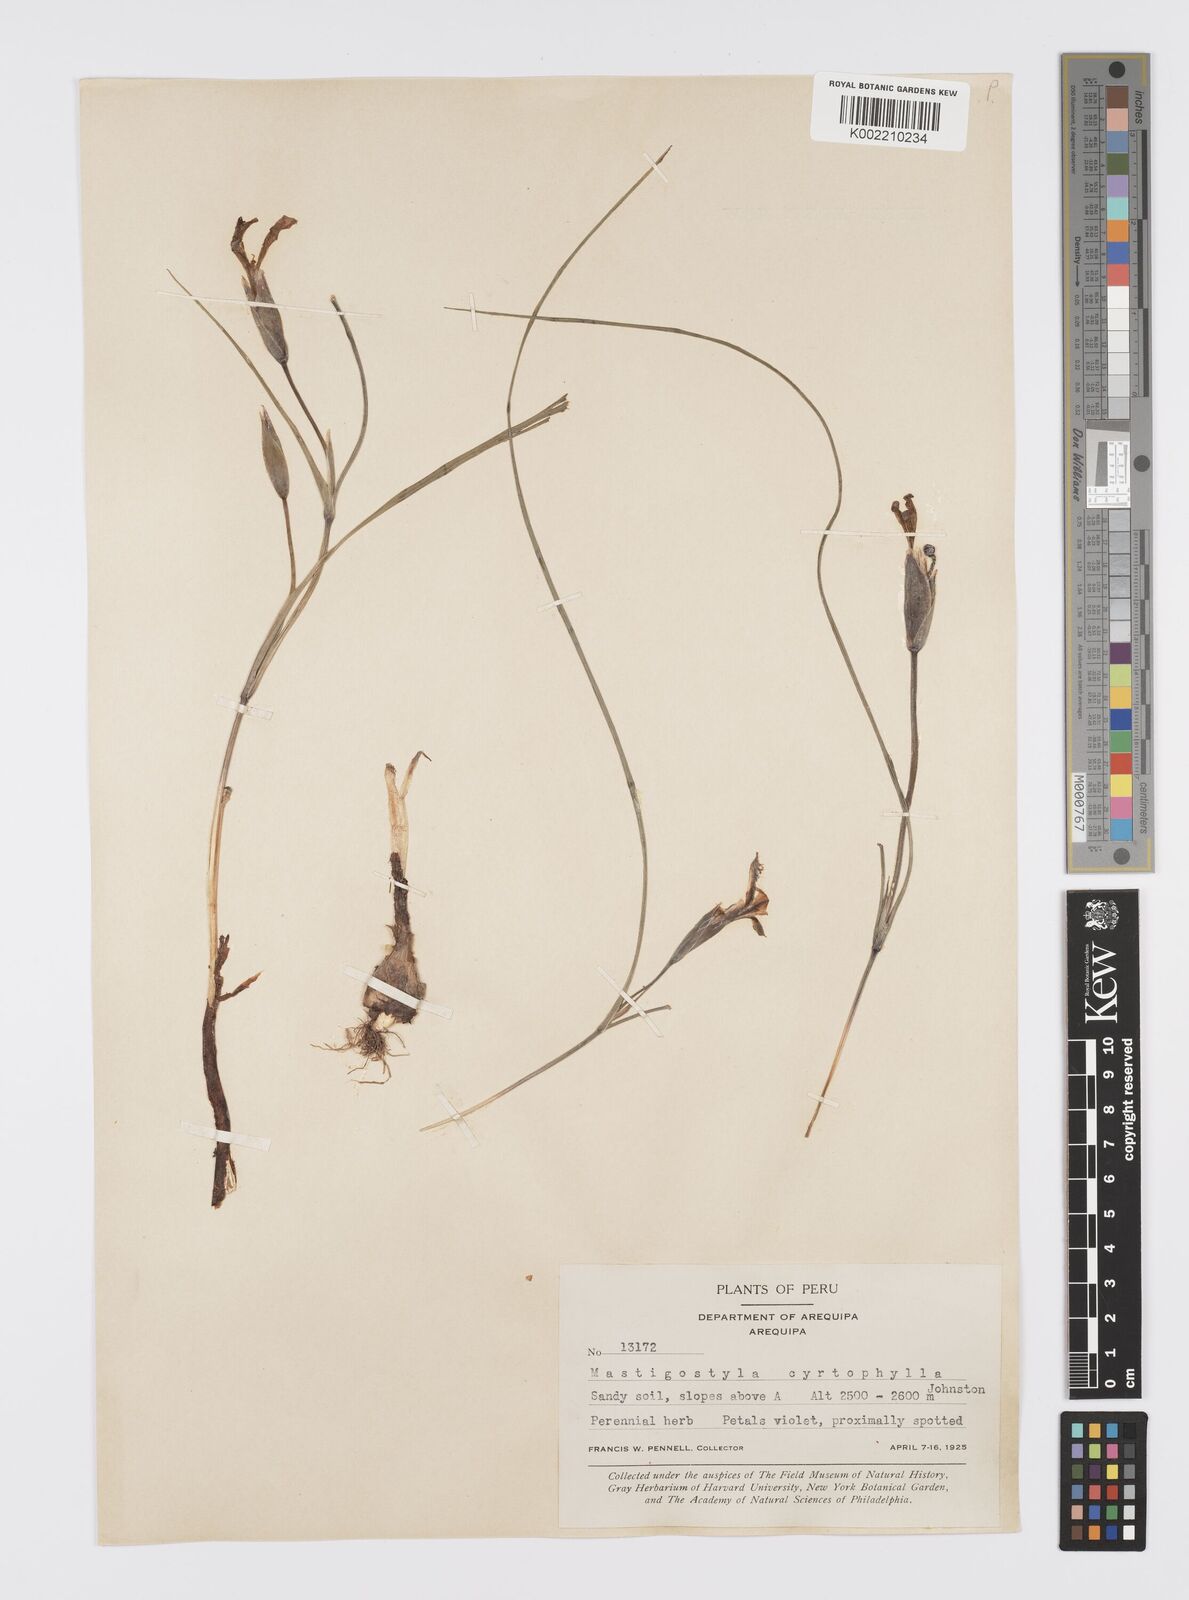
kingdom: Plantae
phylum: Tracheophyta
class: Liliopsida
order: Asparagales
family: Iridaceae
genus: Mastigostyla
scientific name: Mastigostyla cyrtophylla
